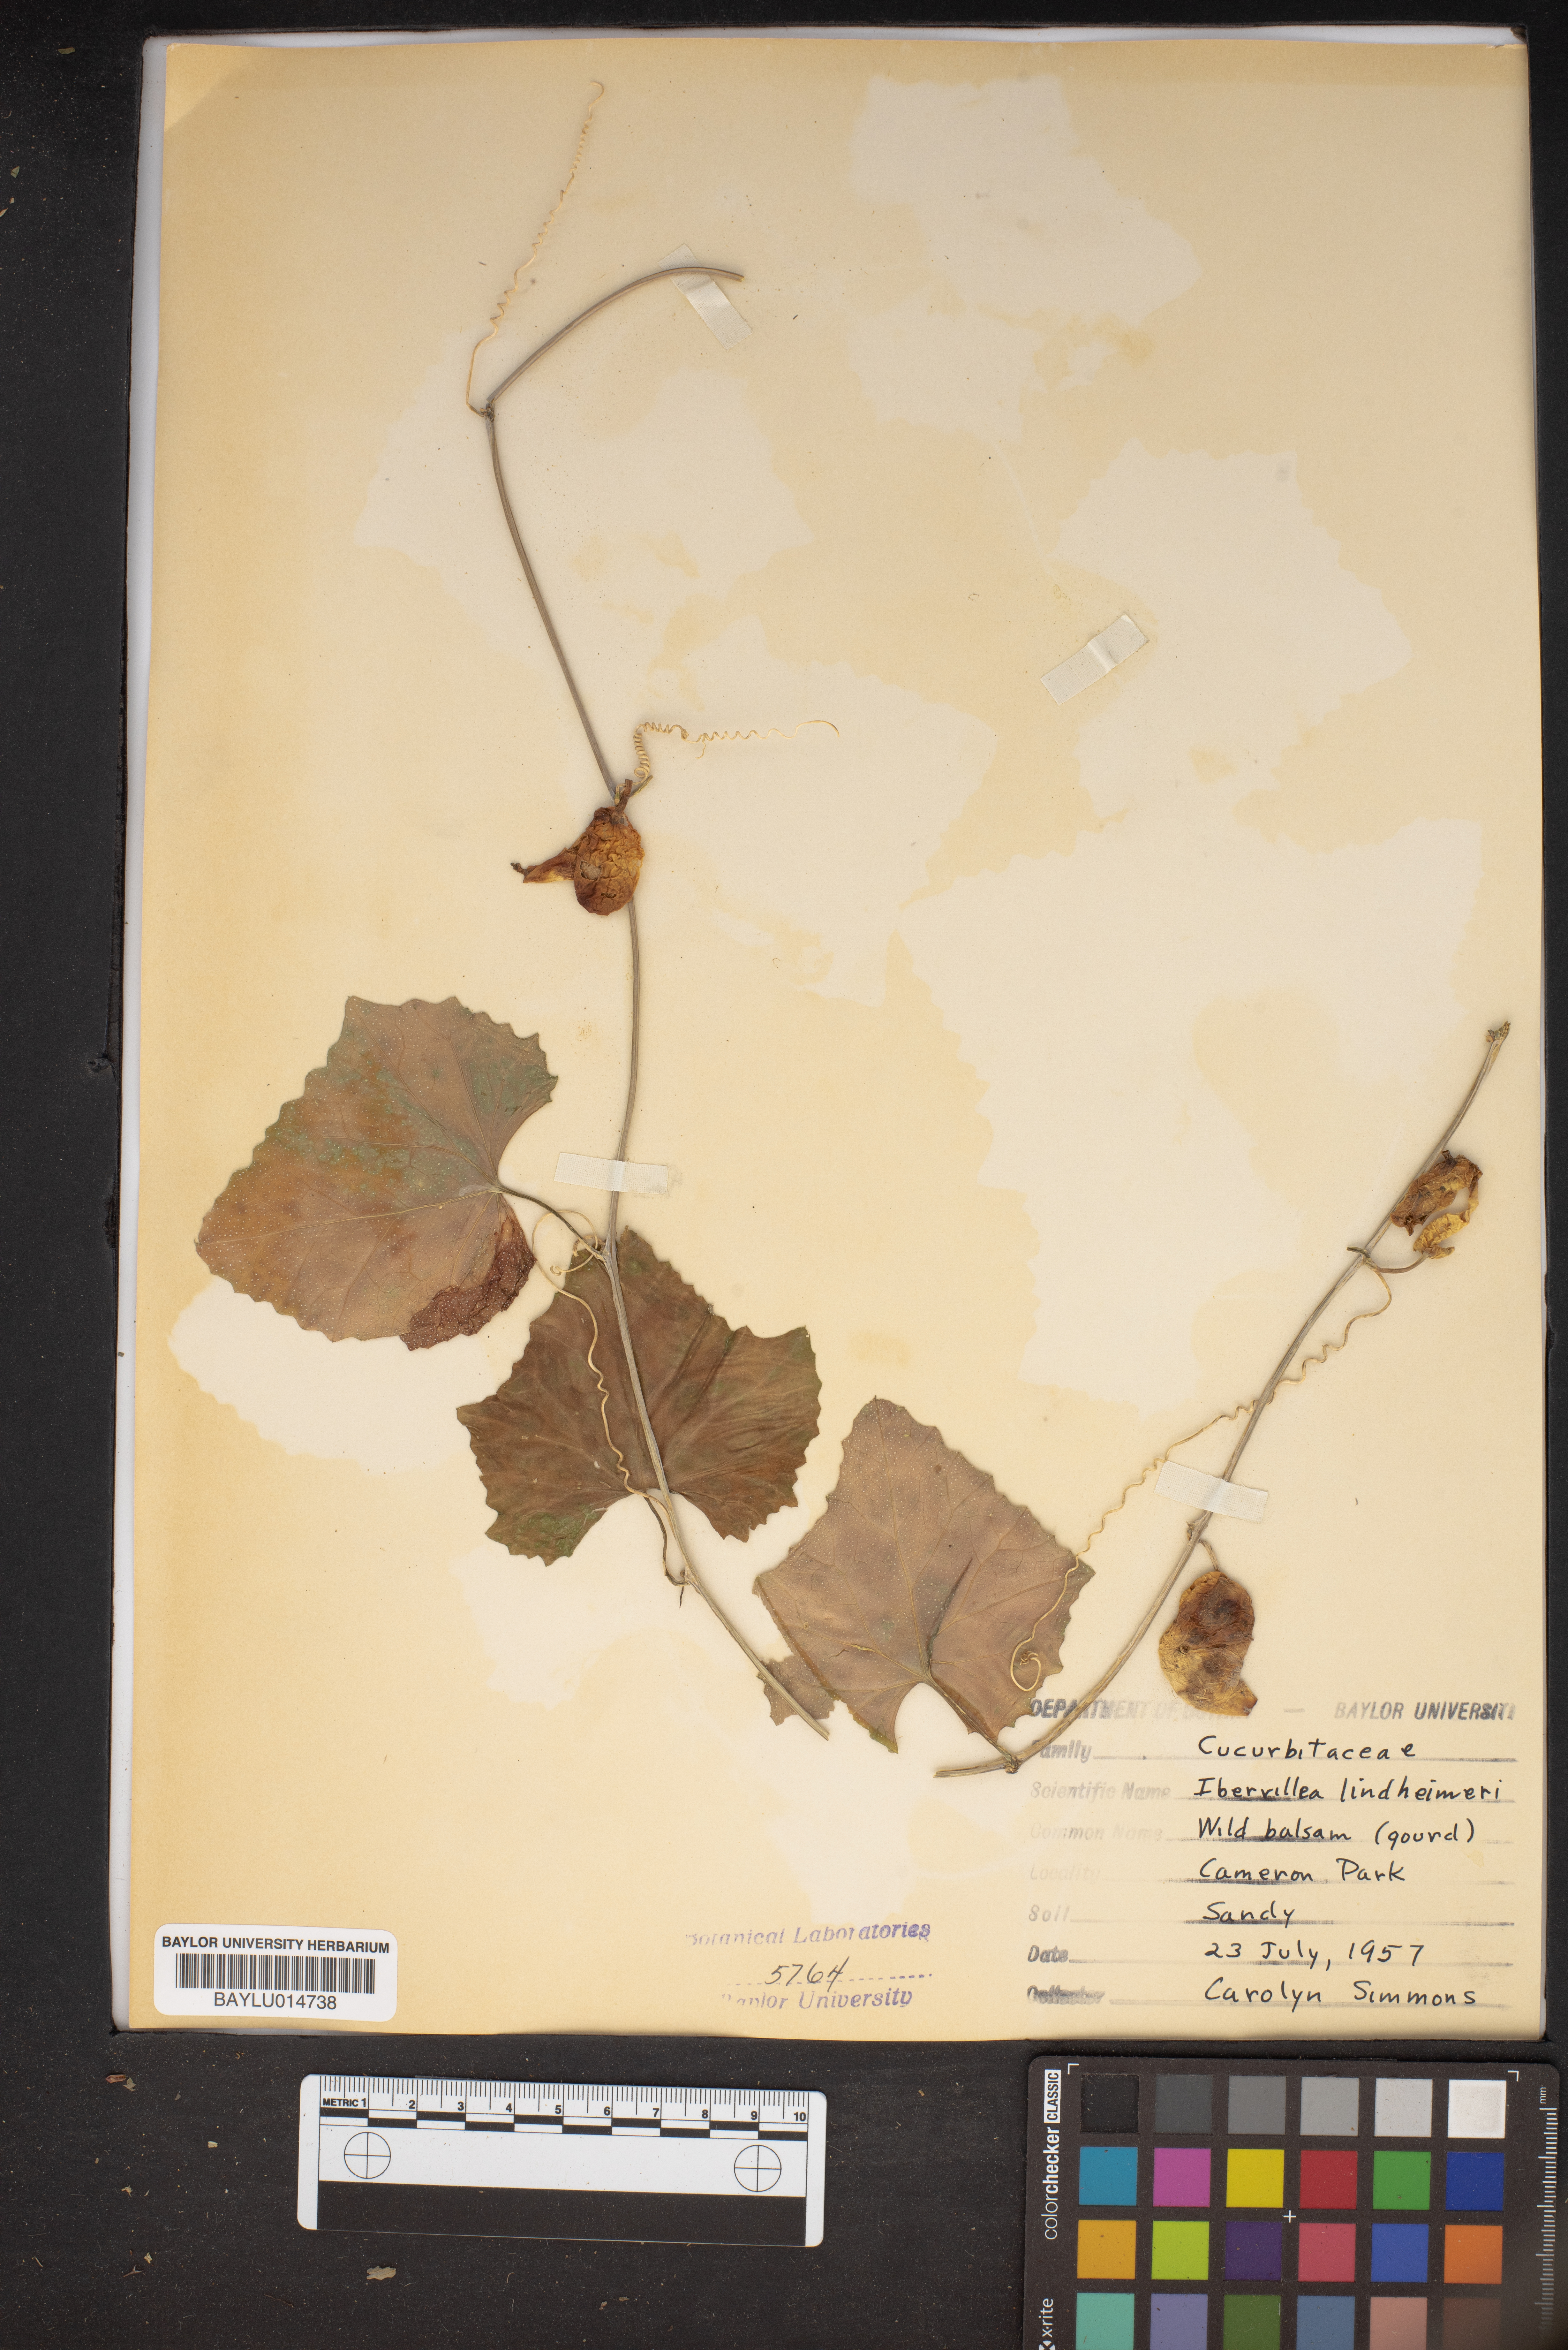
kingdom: Plantae
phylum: Tracheophyta
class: Magnoliopsida
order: Cucurbitales
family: Cucurbitaceae
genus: Ibervillea
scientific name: Ibervillea lindheimeri
